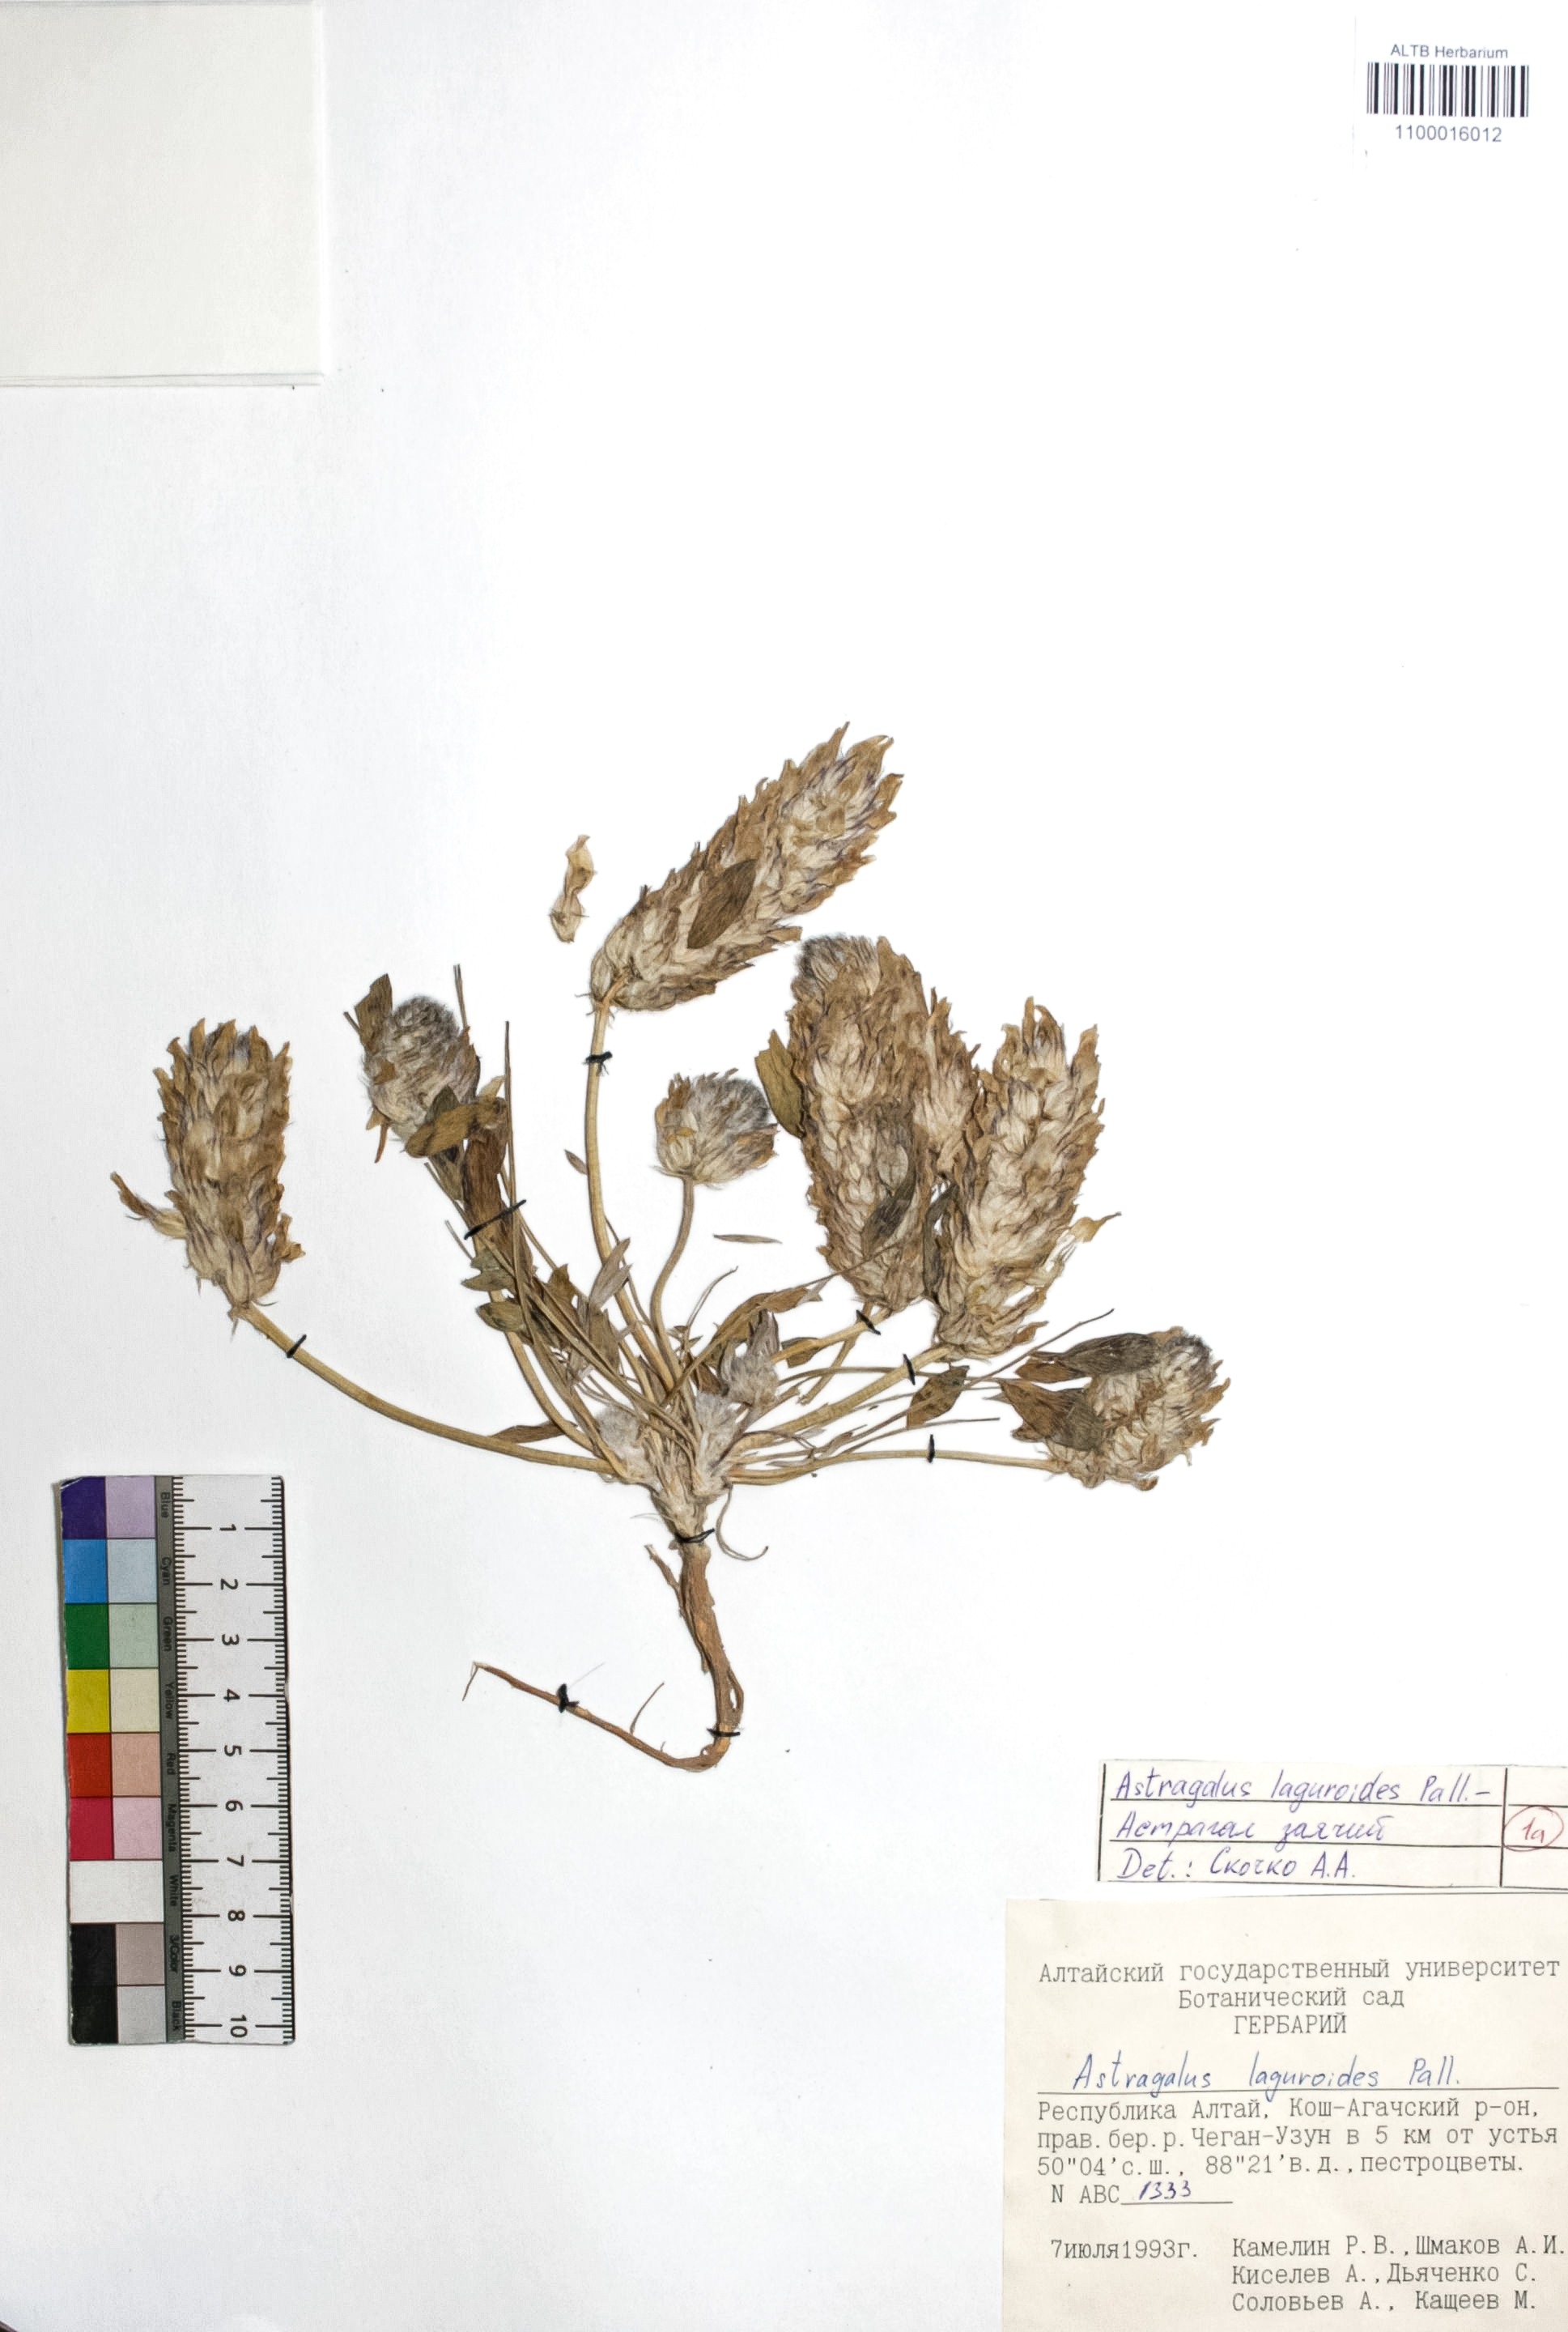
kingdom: Plantae
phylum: Tracheophyta
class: Magnoliopsida
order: Fabales
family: Fabaceae
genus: Astragalus
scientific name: Astragalus laguroides
